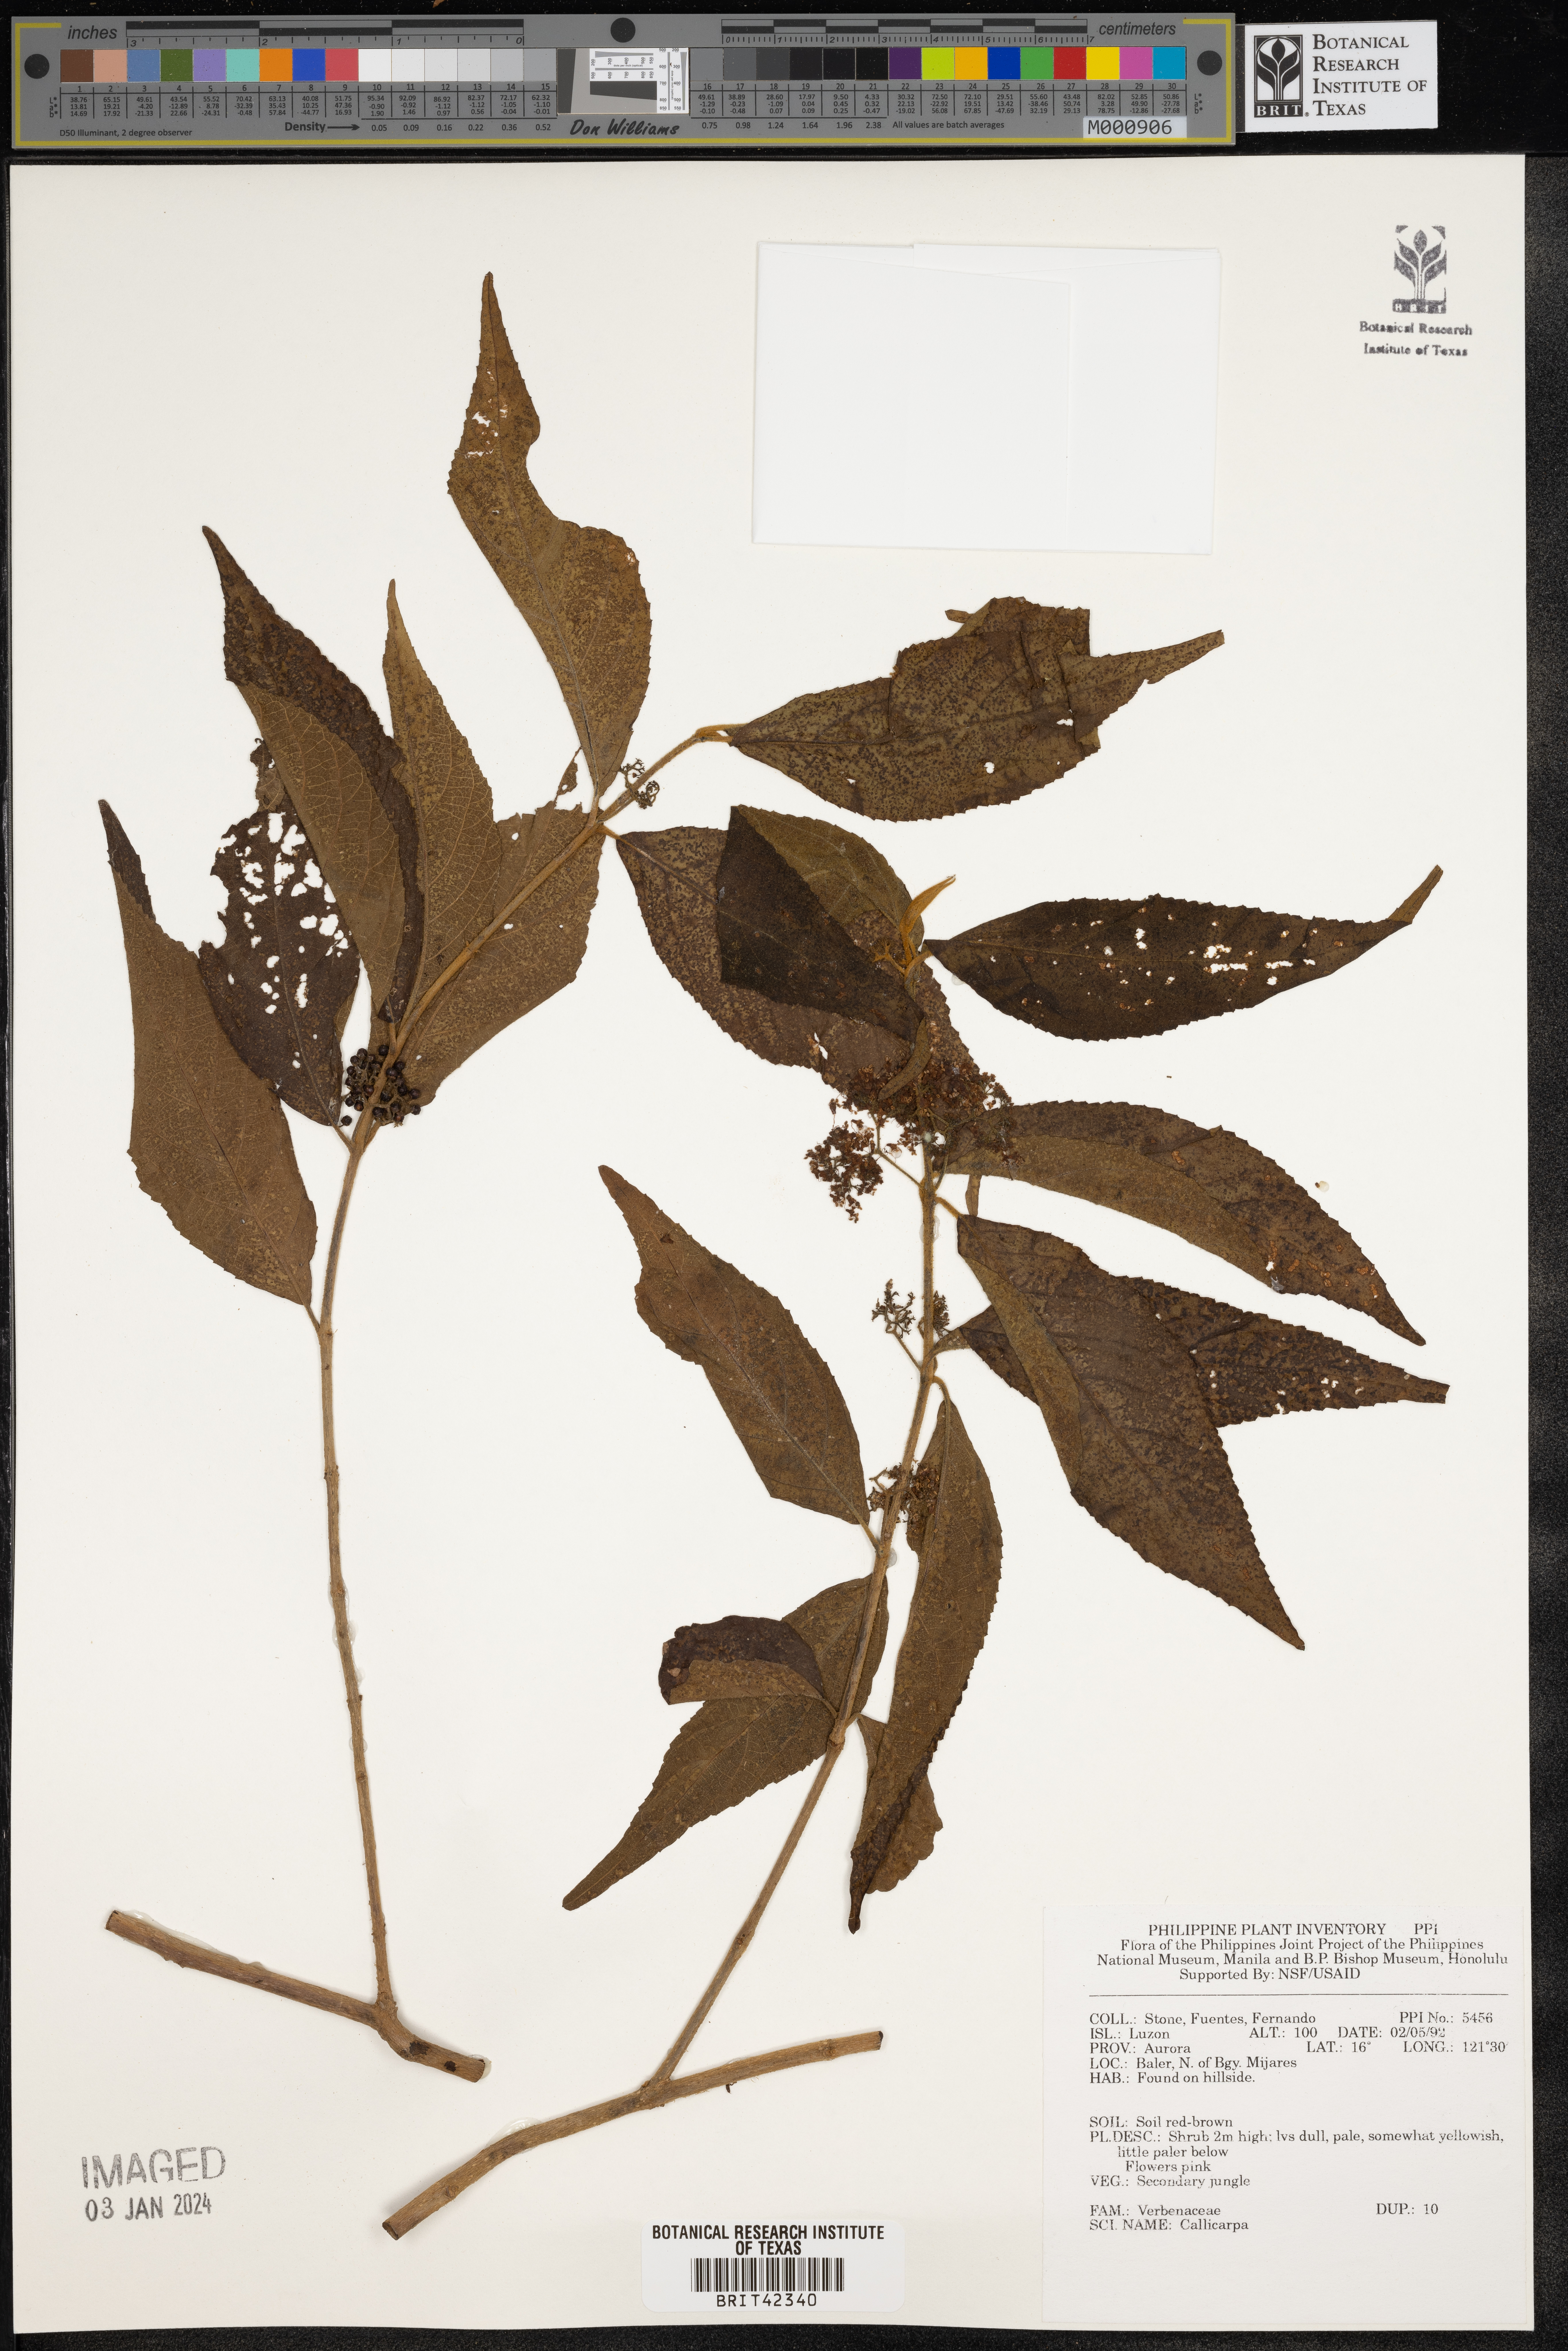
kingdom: Plantae
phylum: Tracheophyta
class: Magnoliopsida
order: Lamiales
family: Lamiaceae
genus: Callicarpa
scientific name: Callicarpa
